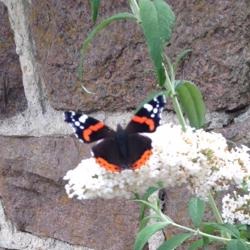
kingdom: Animalia
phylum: Arthropoda
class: Insecta
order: Lepidoptera
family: Nymphalidae
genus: Vanessa
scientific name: Vanessa atalanta
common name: Admiral
